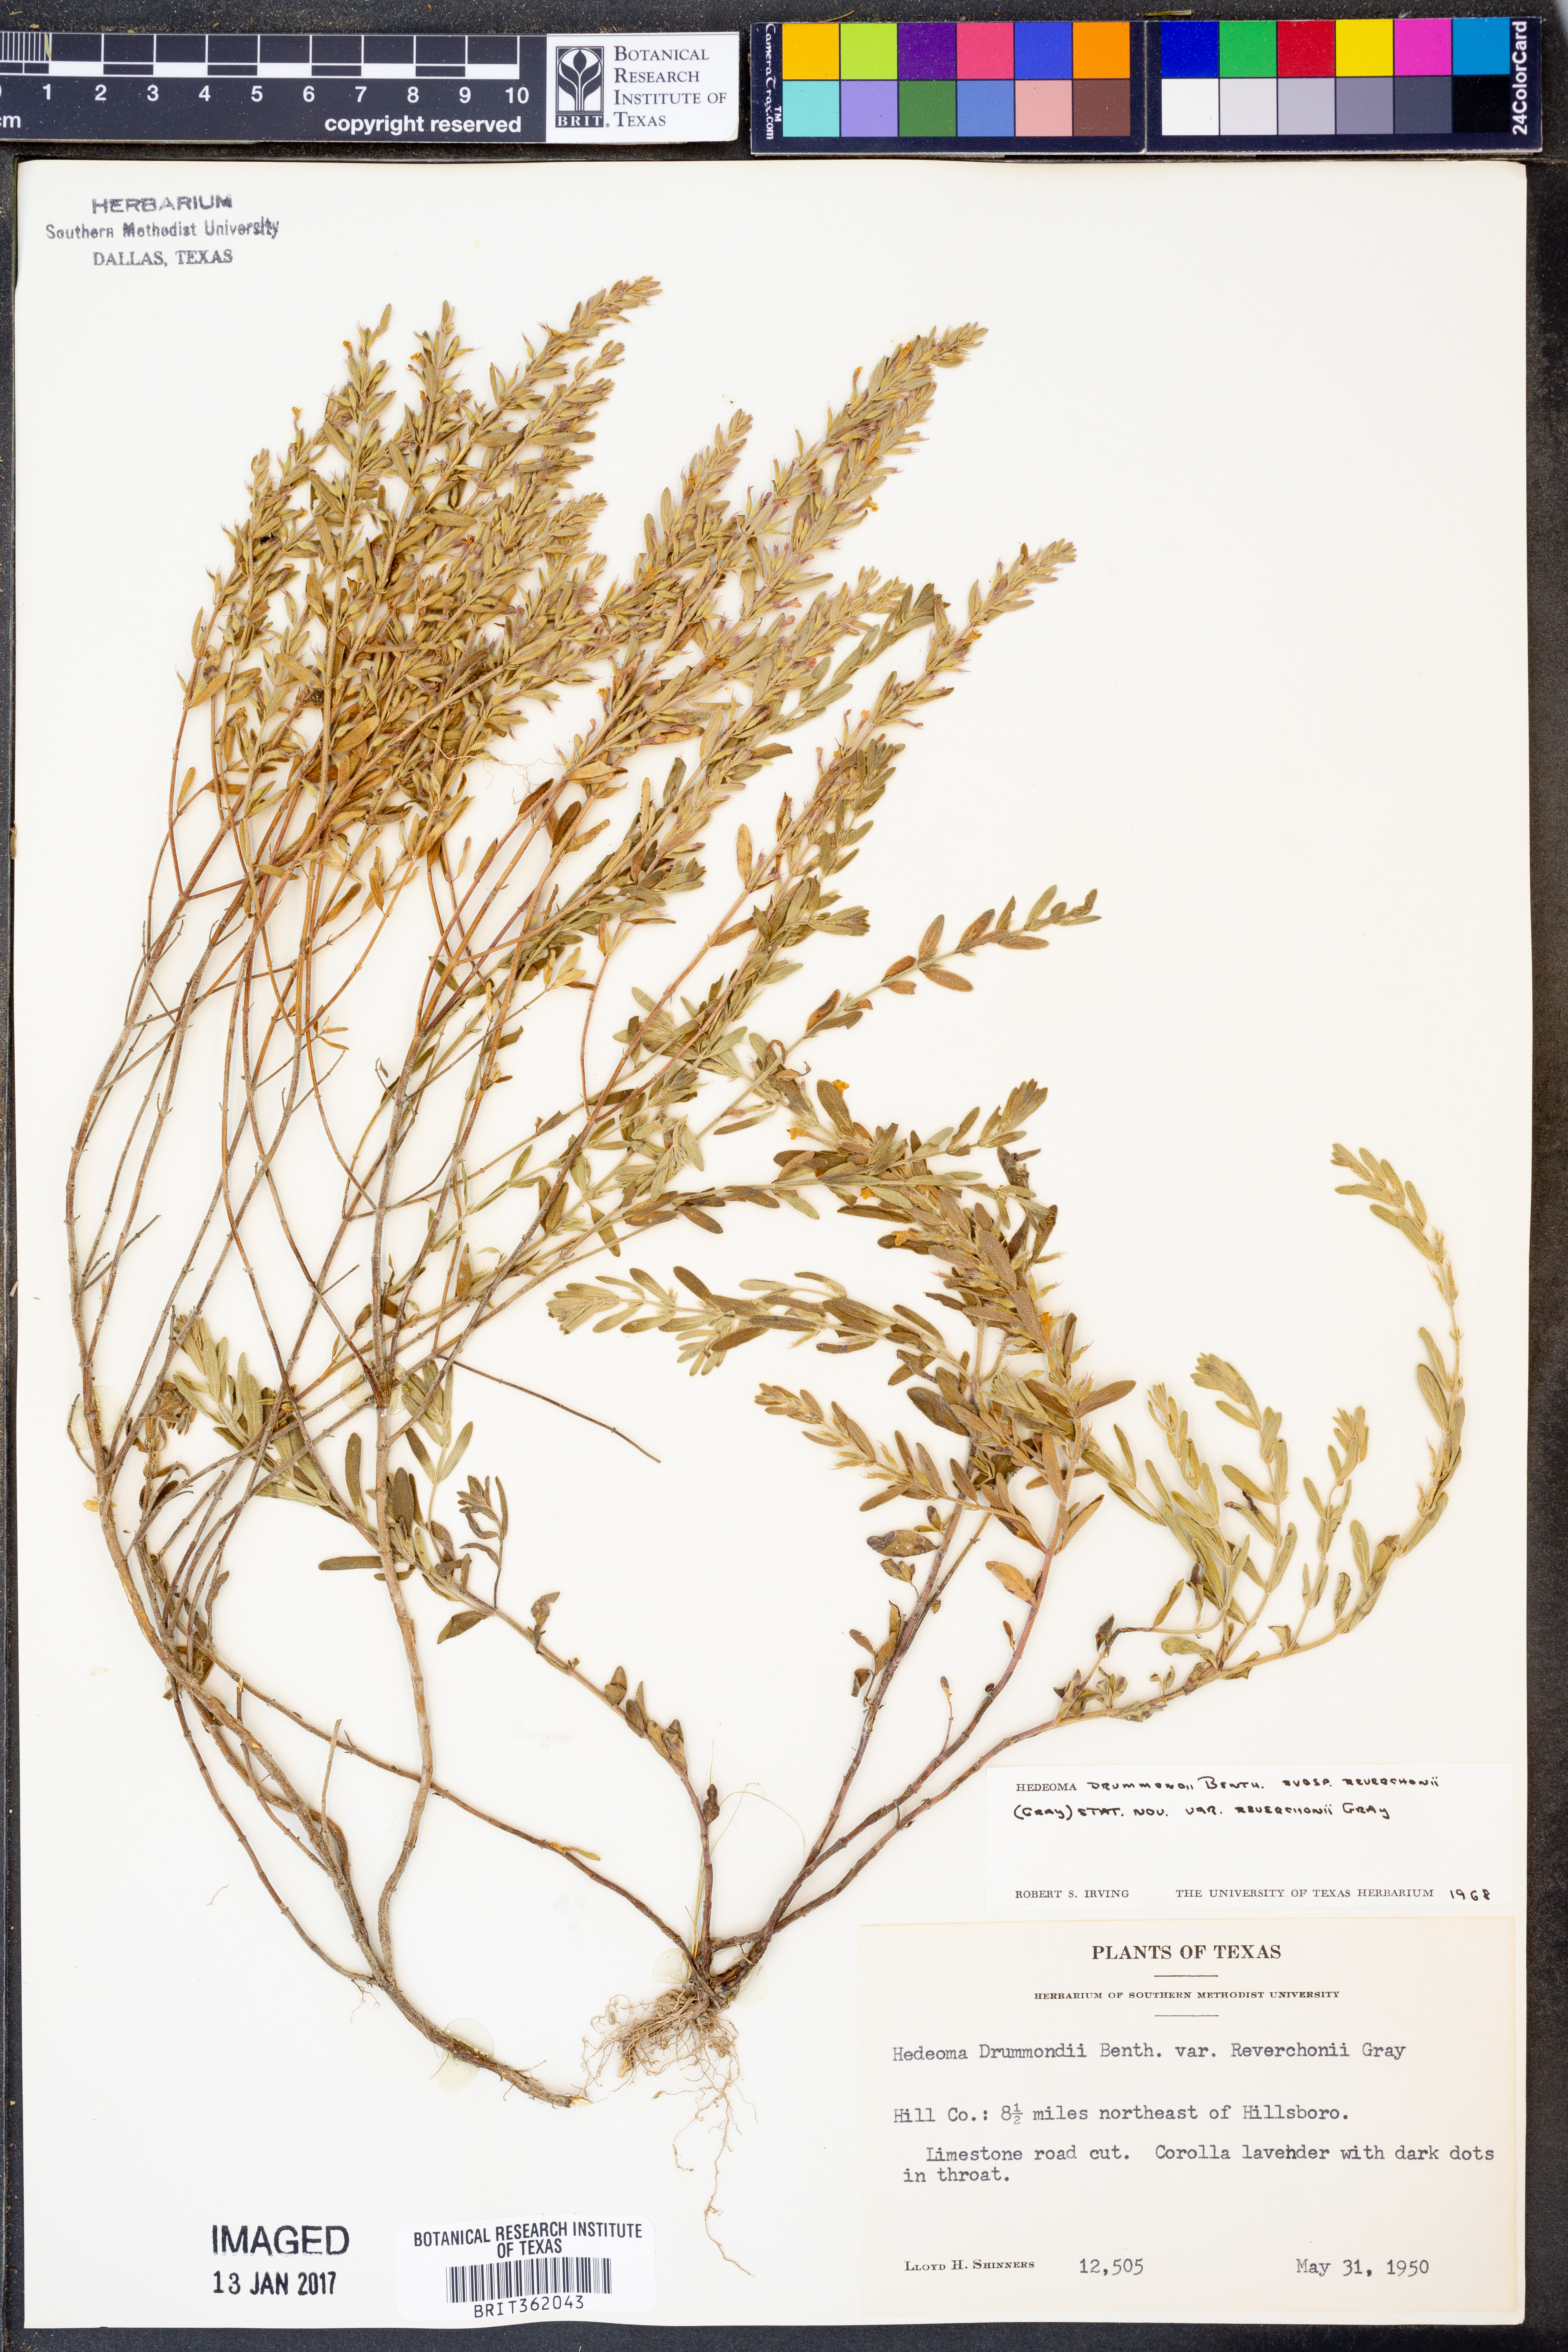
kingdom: Plantae
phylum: Tracheophyta
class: Magnoliopsida
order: Lamiales
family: Lamiaceae
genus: Hedeoma
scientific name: Hedeoma reverchonii
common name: Reverchon's false penny-royal
